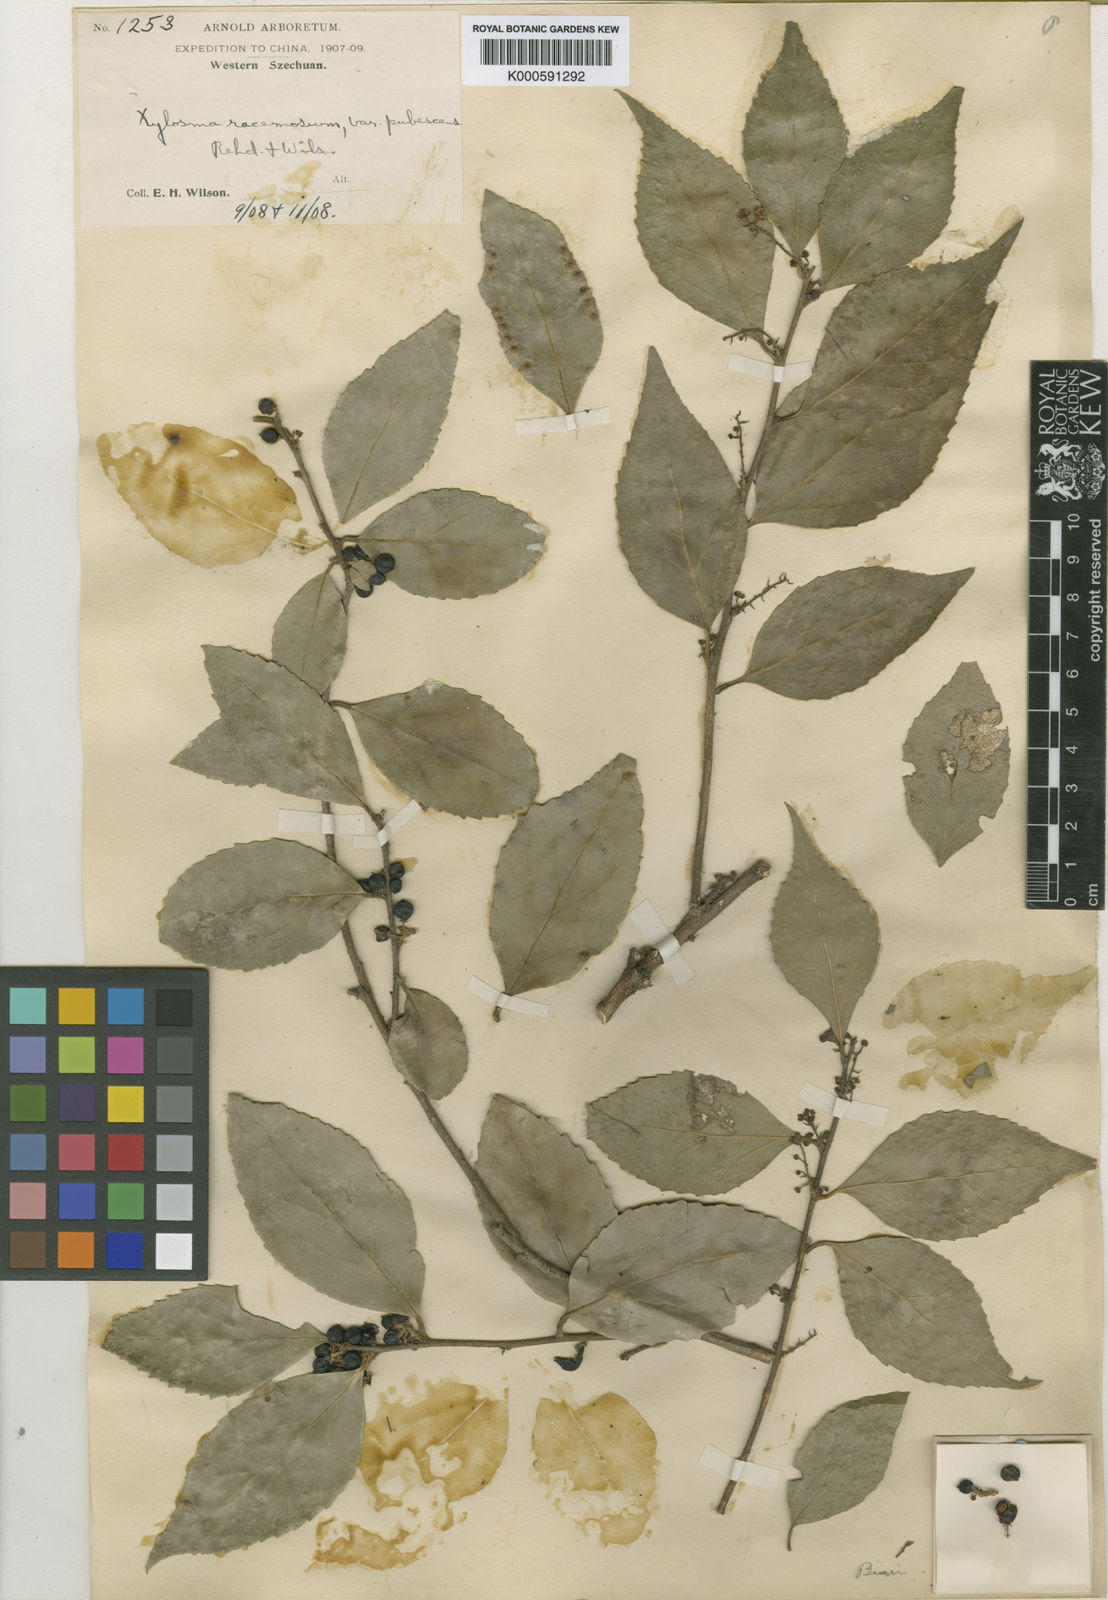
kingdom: Plantae
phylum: Tracheophyta
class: Magnoliopsida
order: Malpighiales
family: Salicaceae
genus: Xylosma
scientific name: Xylosma racemosum
